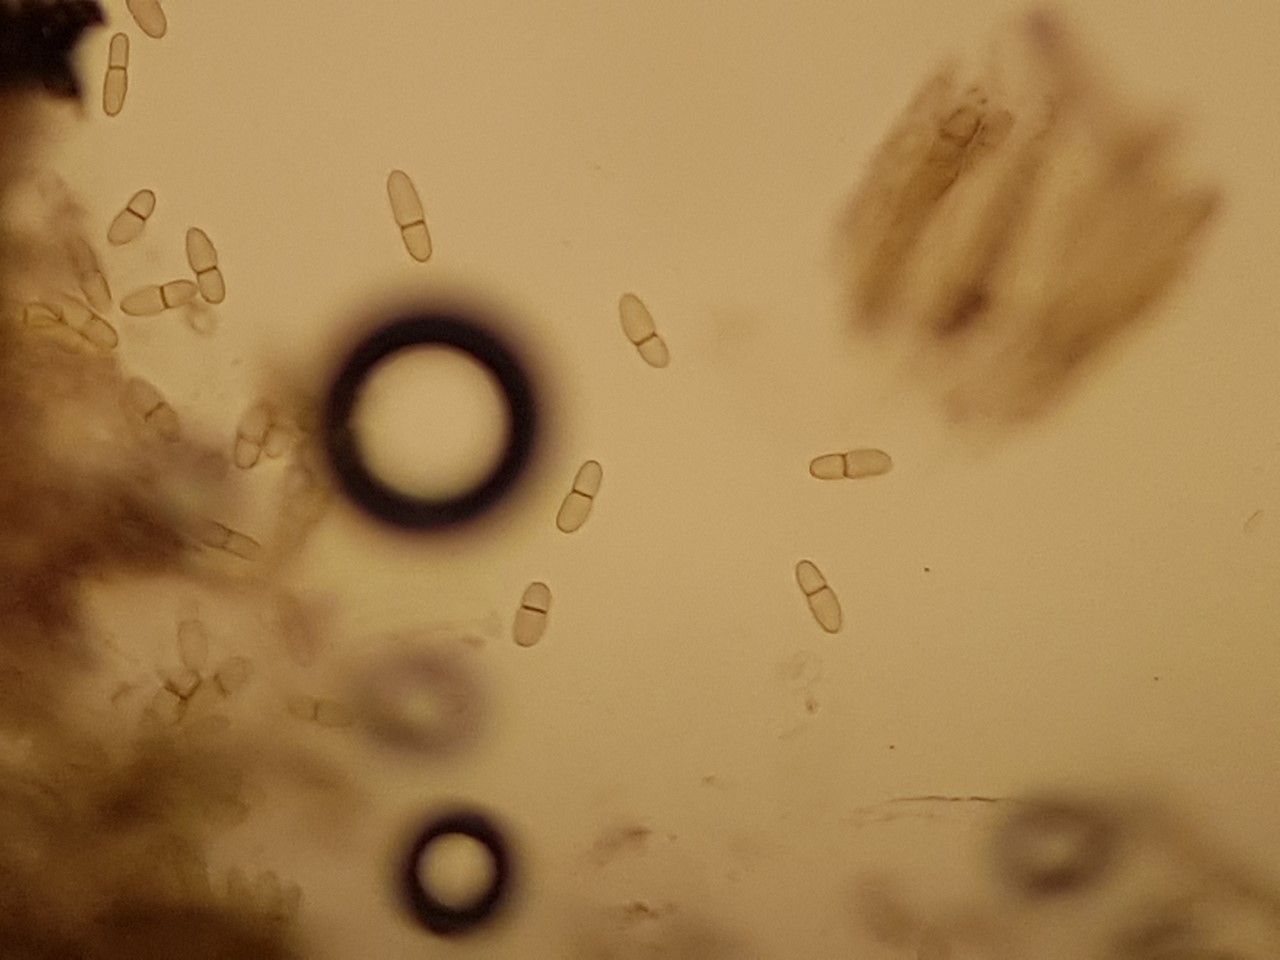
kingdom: Fungi
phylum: Ascomycota
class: Dothideomycetes
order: Dothideales
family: Dothideaceae
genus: Dothidea
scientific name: Dothidea sambuci
